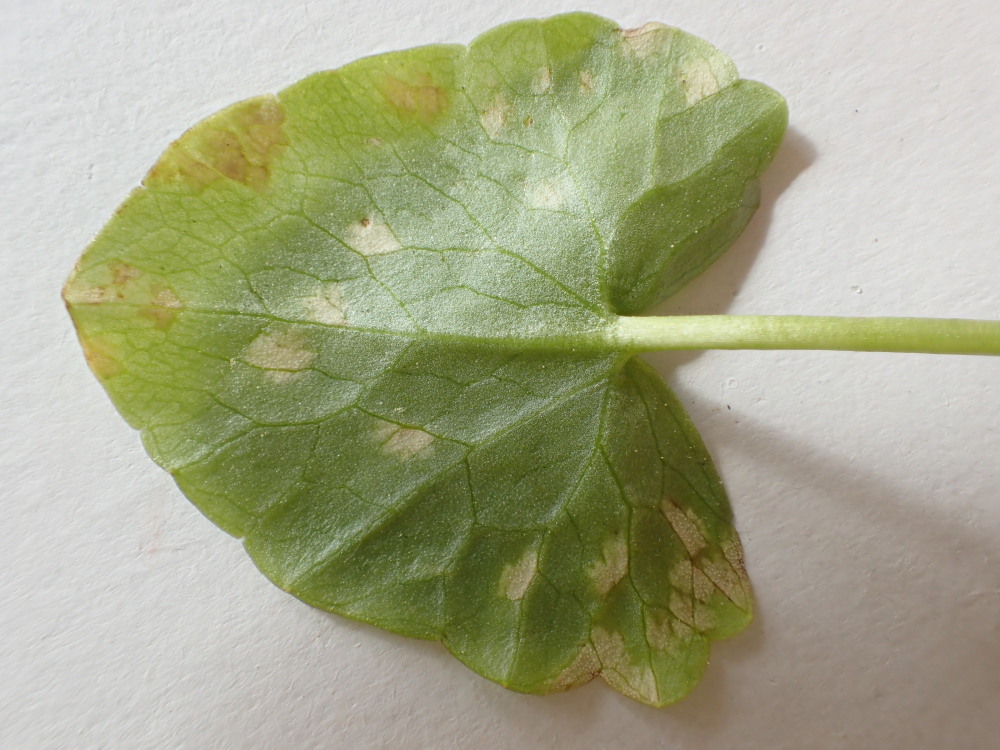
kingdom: Fungi
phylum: Basidiomycota
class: Ustilaginomycetes
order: Urocystidales
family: Urocystidaceae
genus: Urocystis
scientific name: Urocystis ficariae
